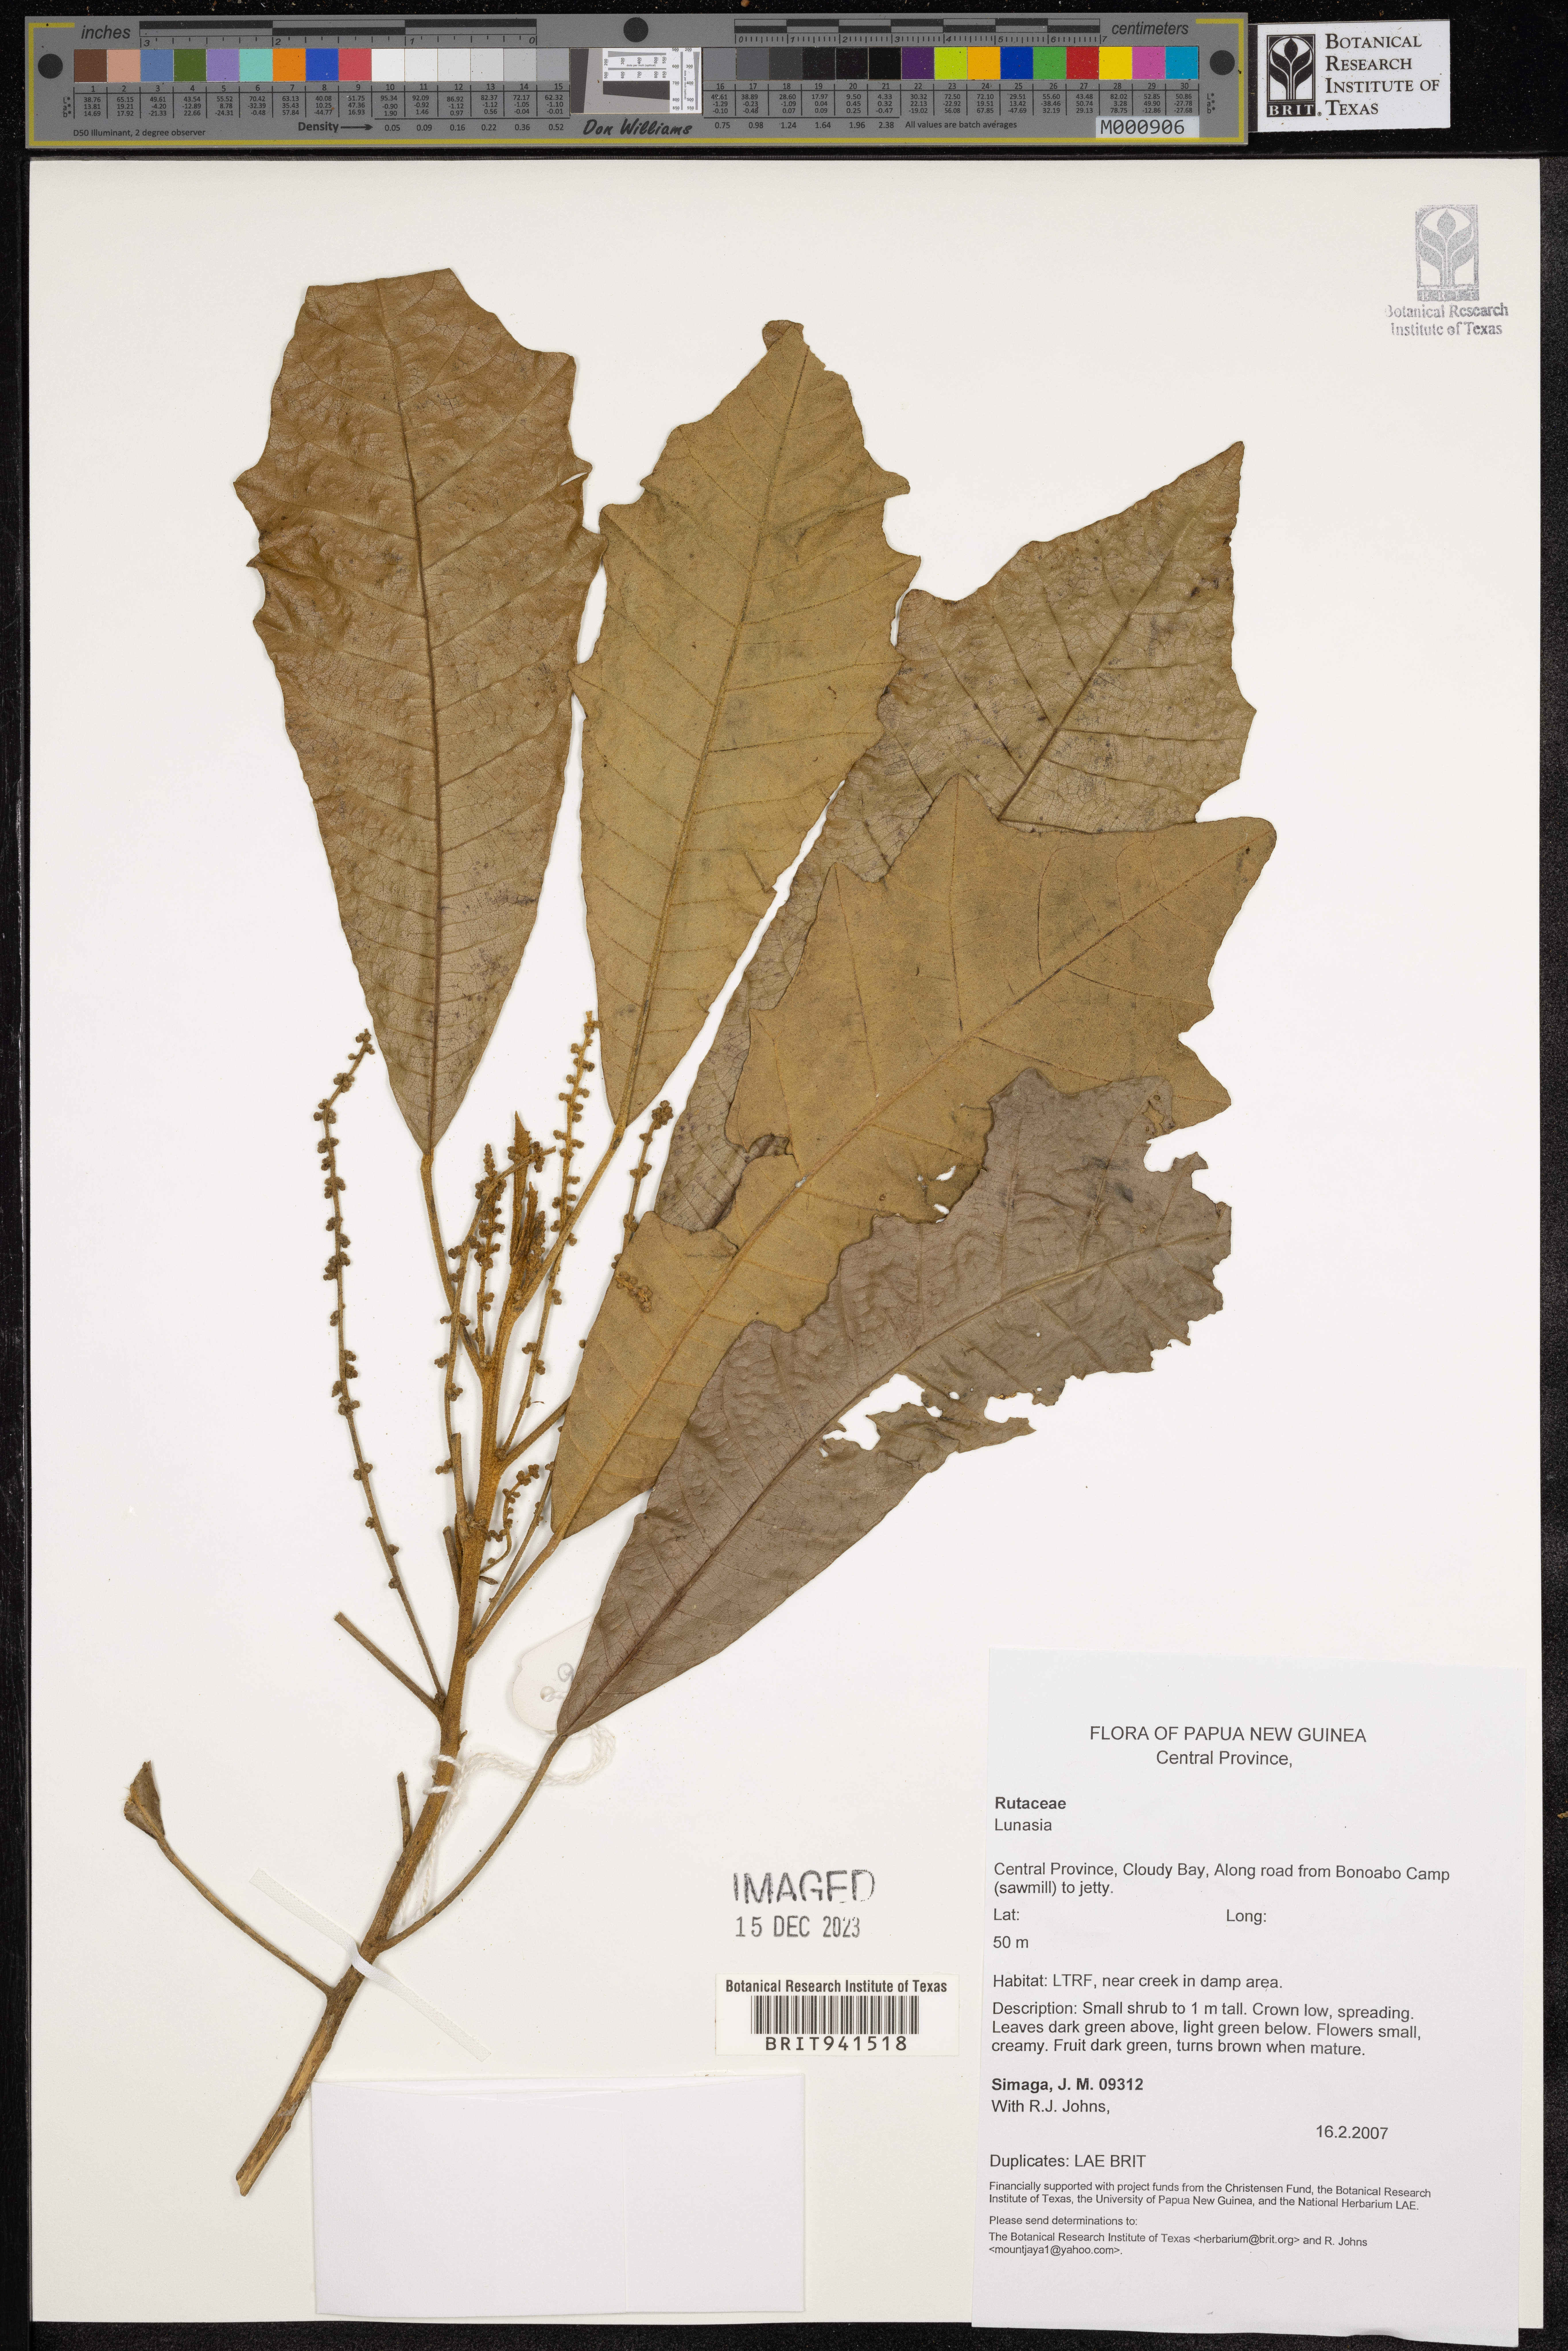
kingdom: Plantae
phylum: Tracheophyta
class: Magnoliopsida
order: Sapindales
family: Rutaceae
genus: Lunasia
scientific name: Lunasia
